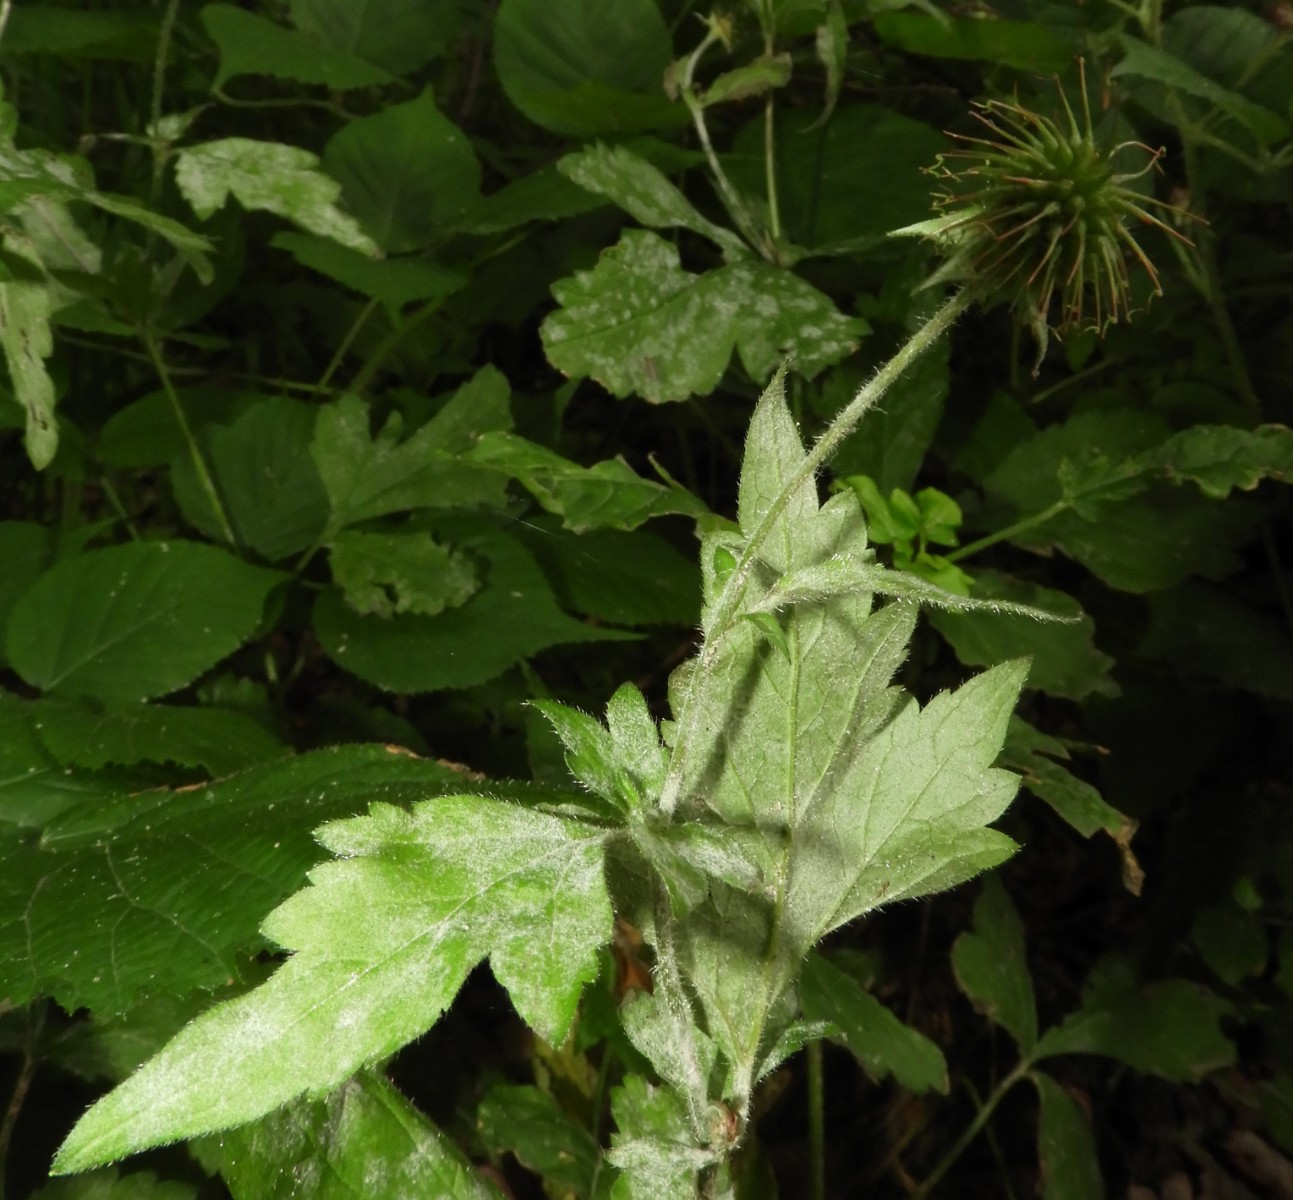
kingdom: Fungi
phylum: Ascomycota
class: Leotiomycetes
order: Helotiales
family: Erysiphaceae
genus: Podosphaera
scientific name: Podosphaera aphanis
